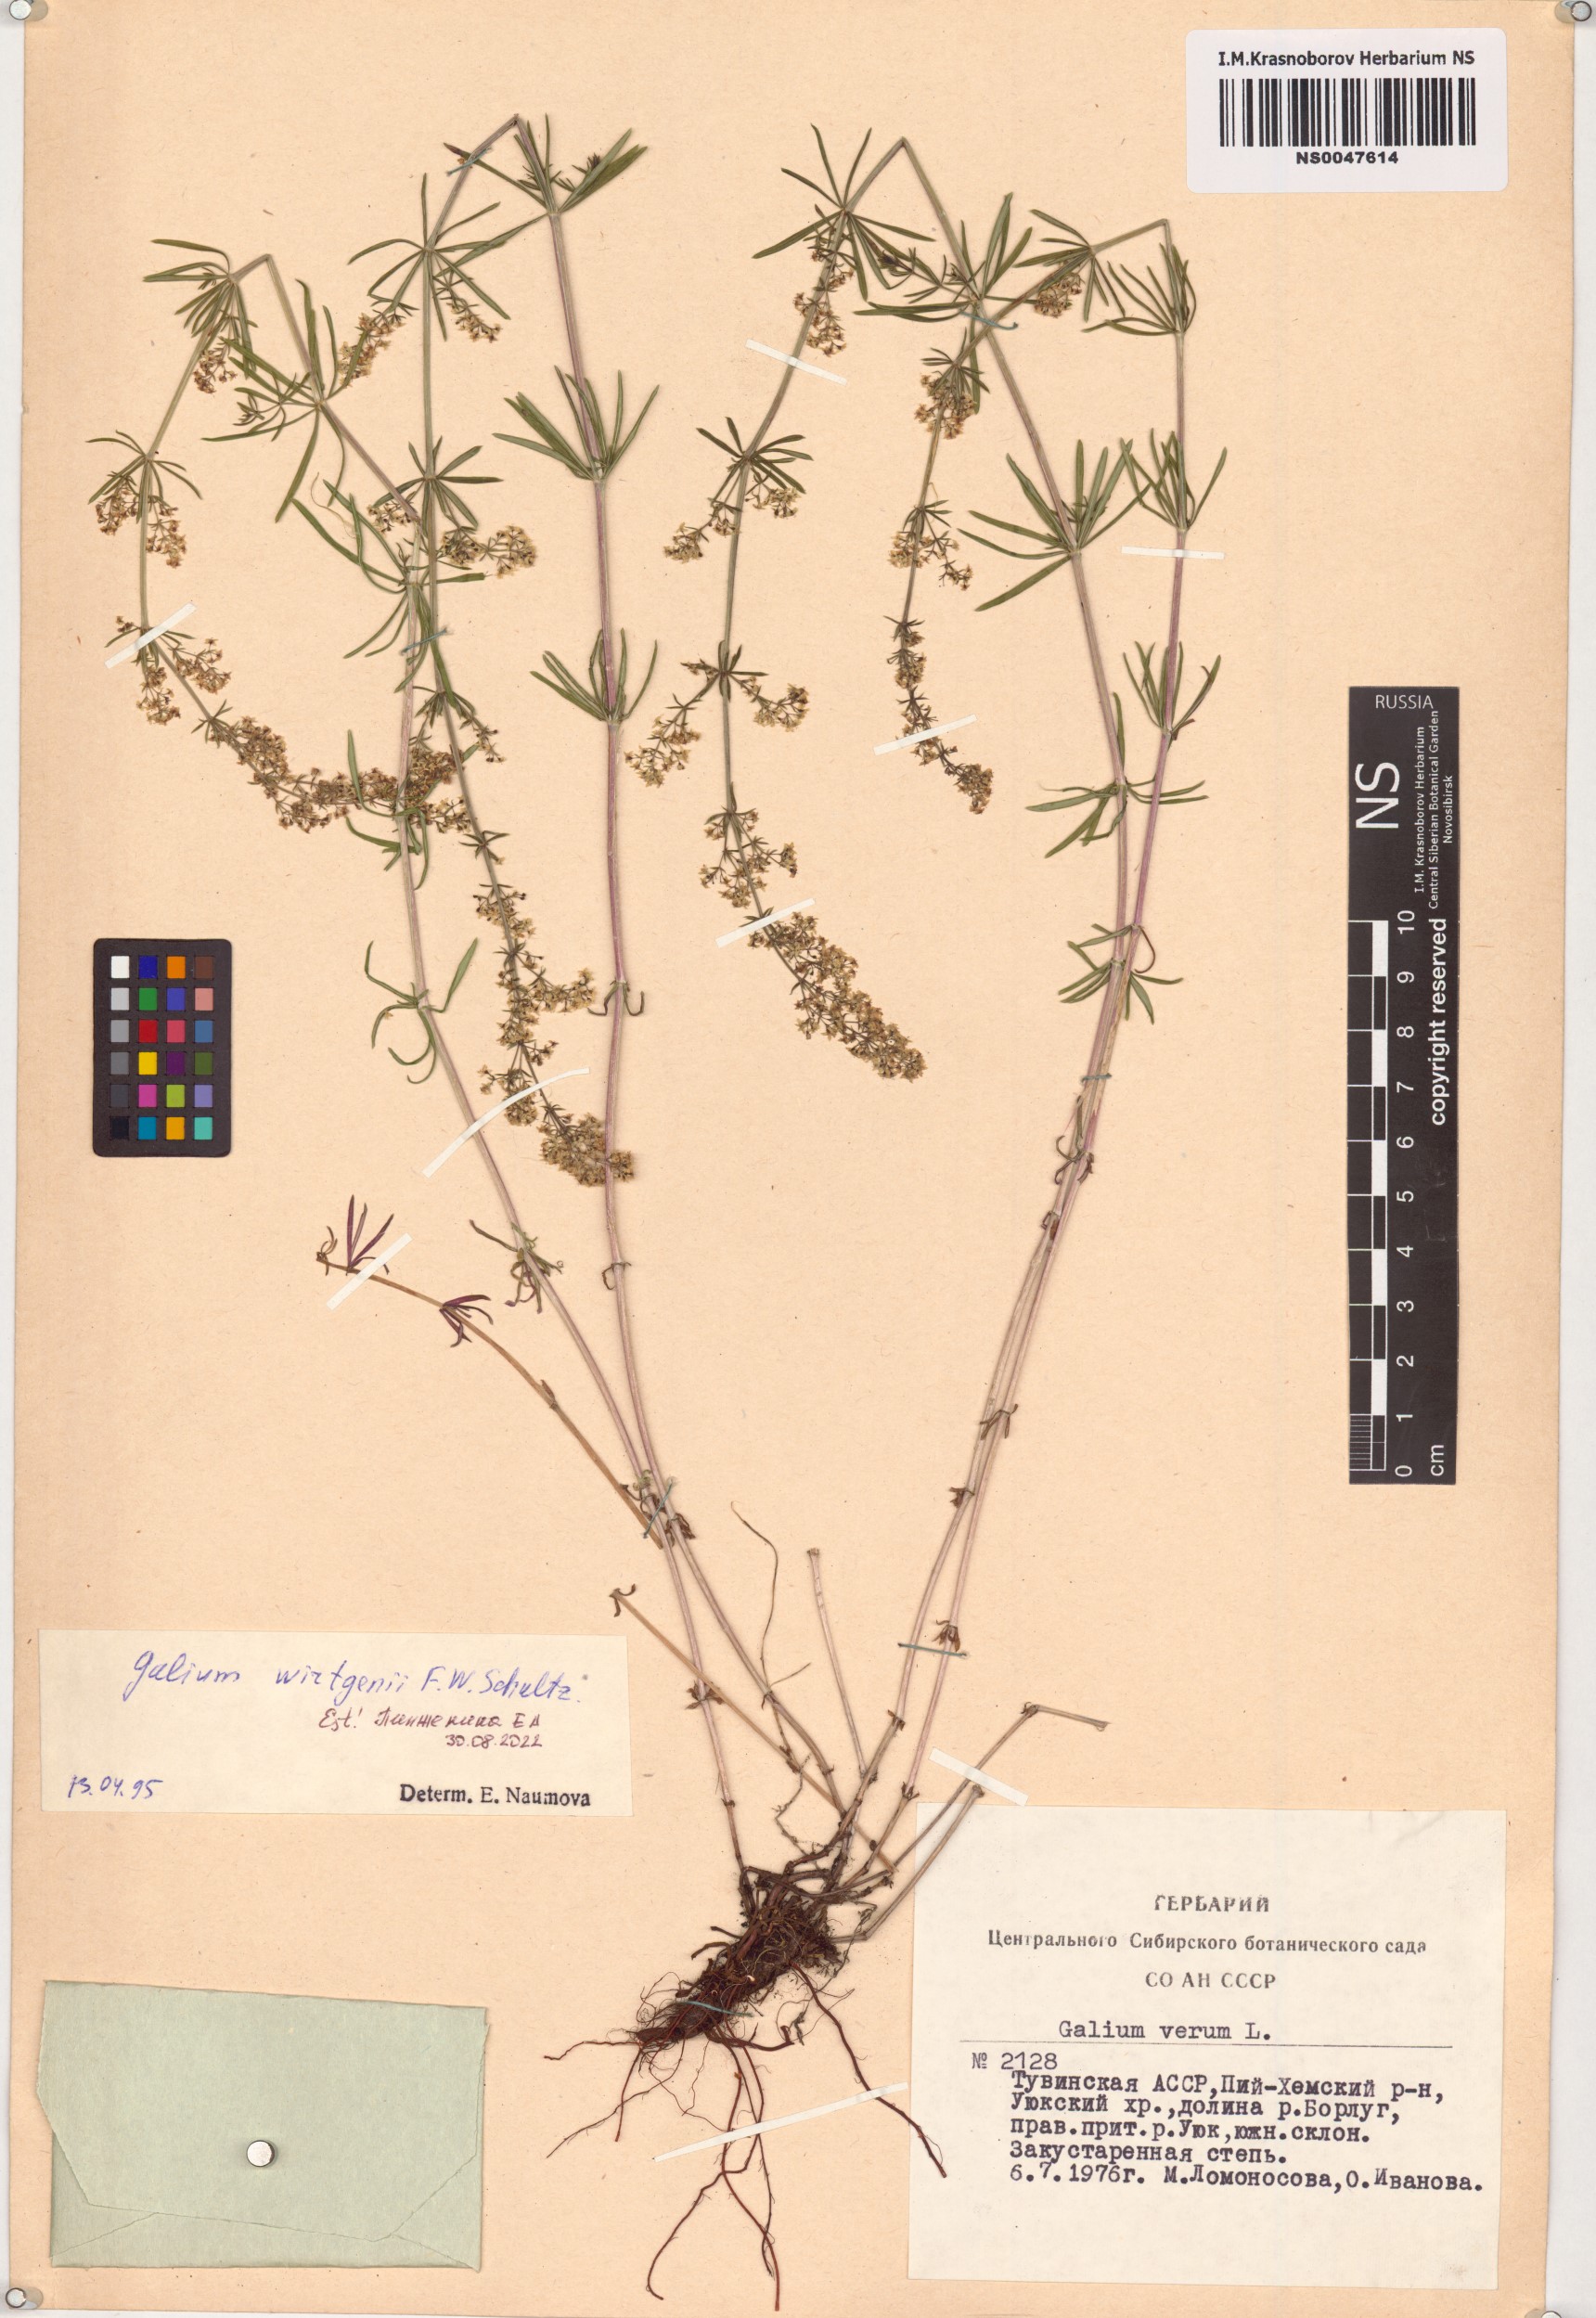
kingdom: Plantae
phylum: Tracheophyta
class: Magnoliopsida
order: Gentianales
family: Rubiaceae
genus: Galium
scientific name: Galium verum
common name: Lady's bedstraw
